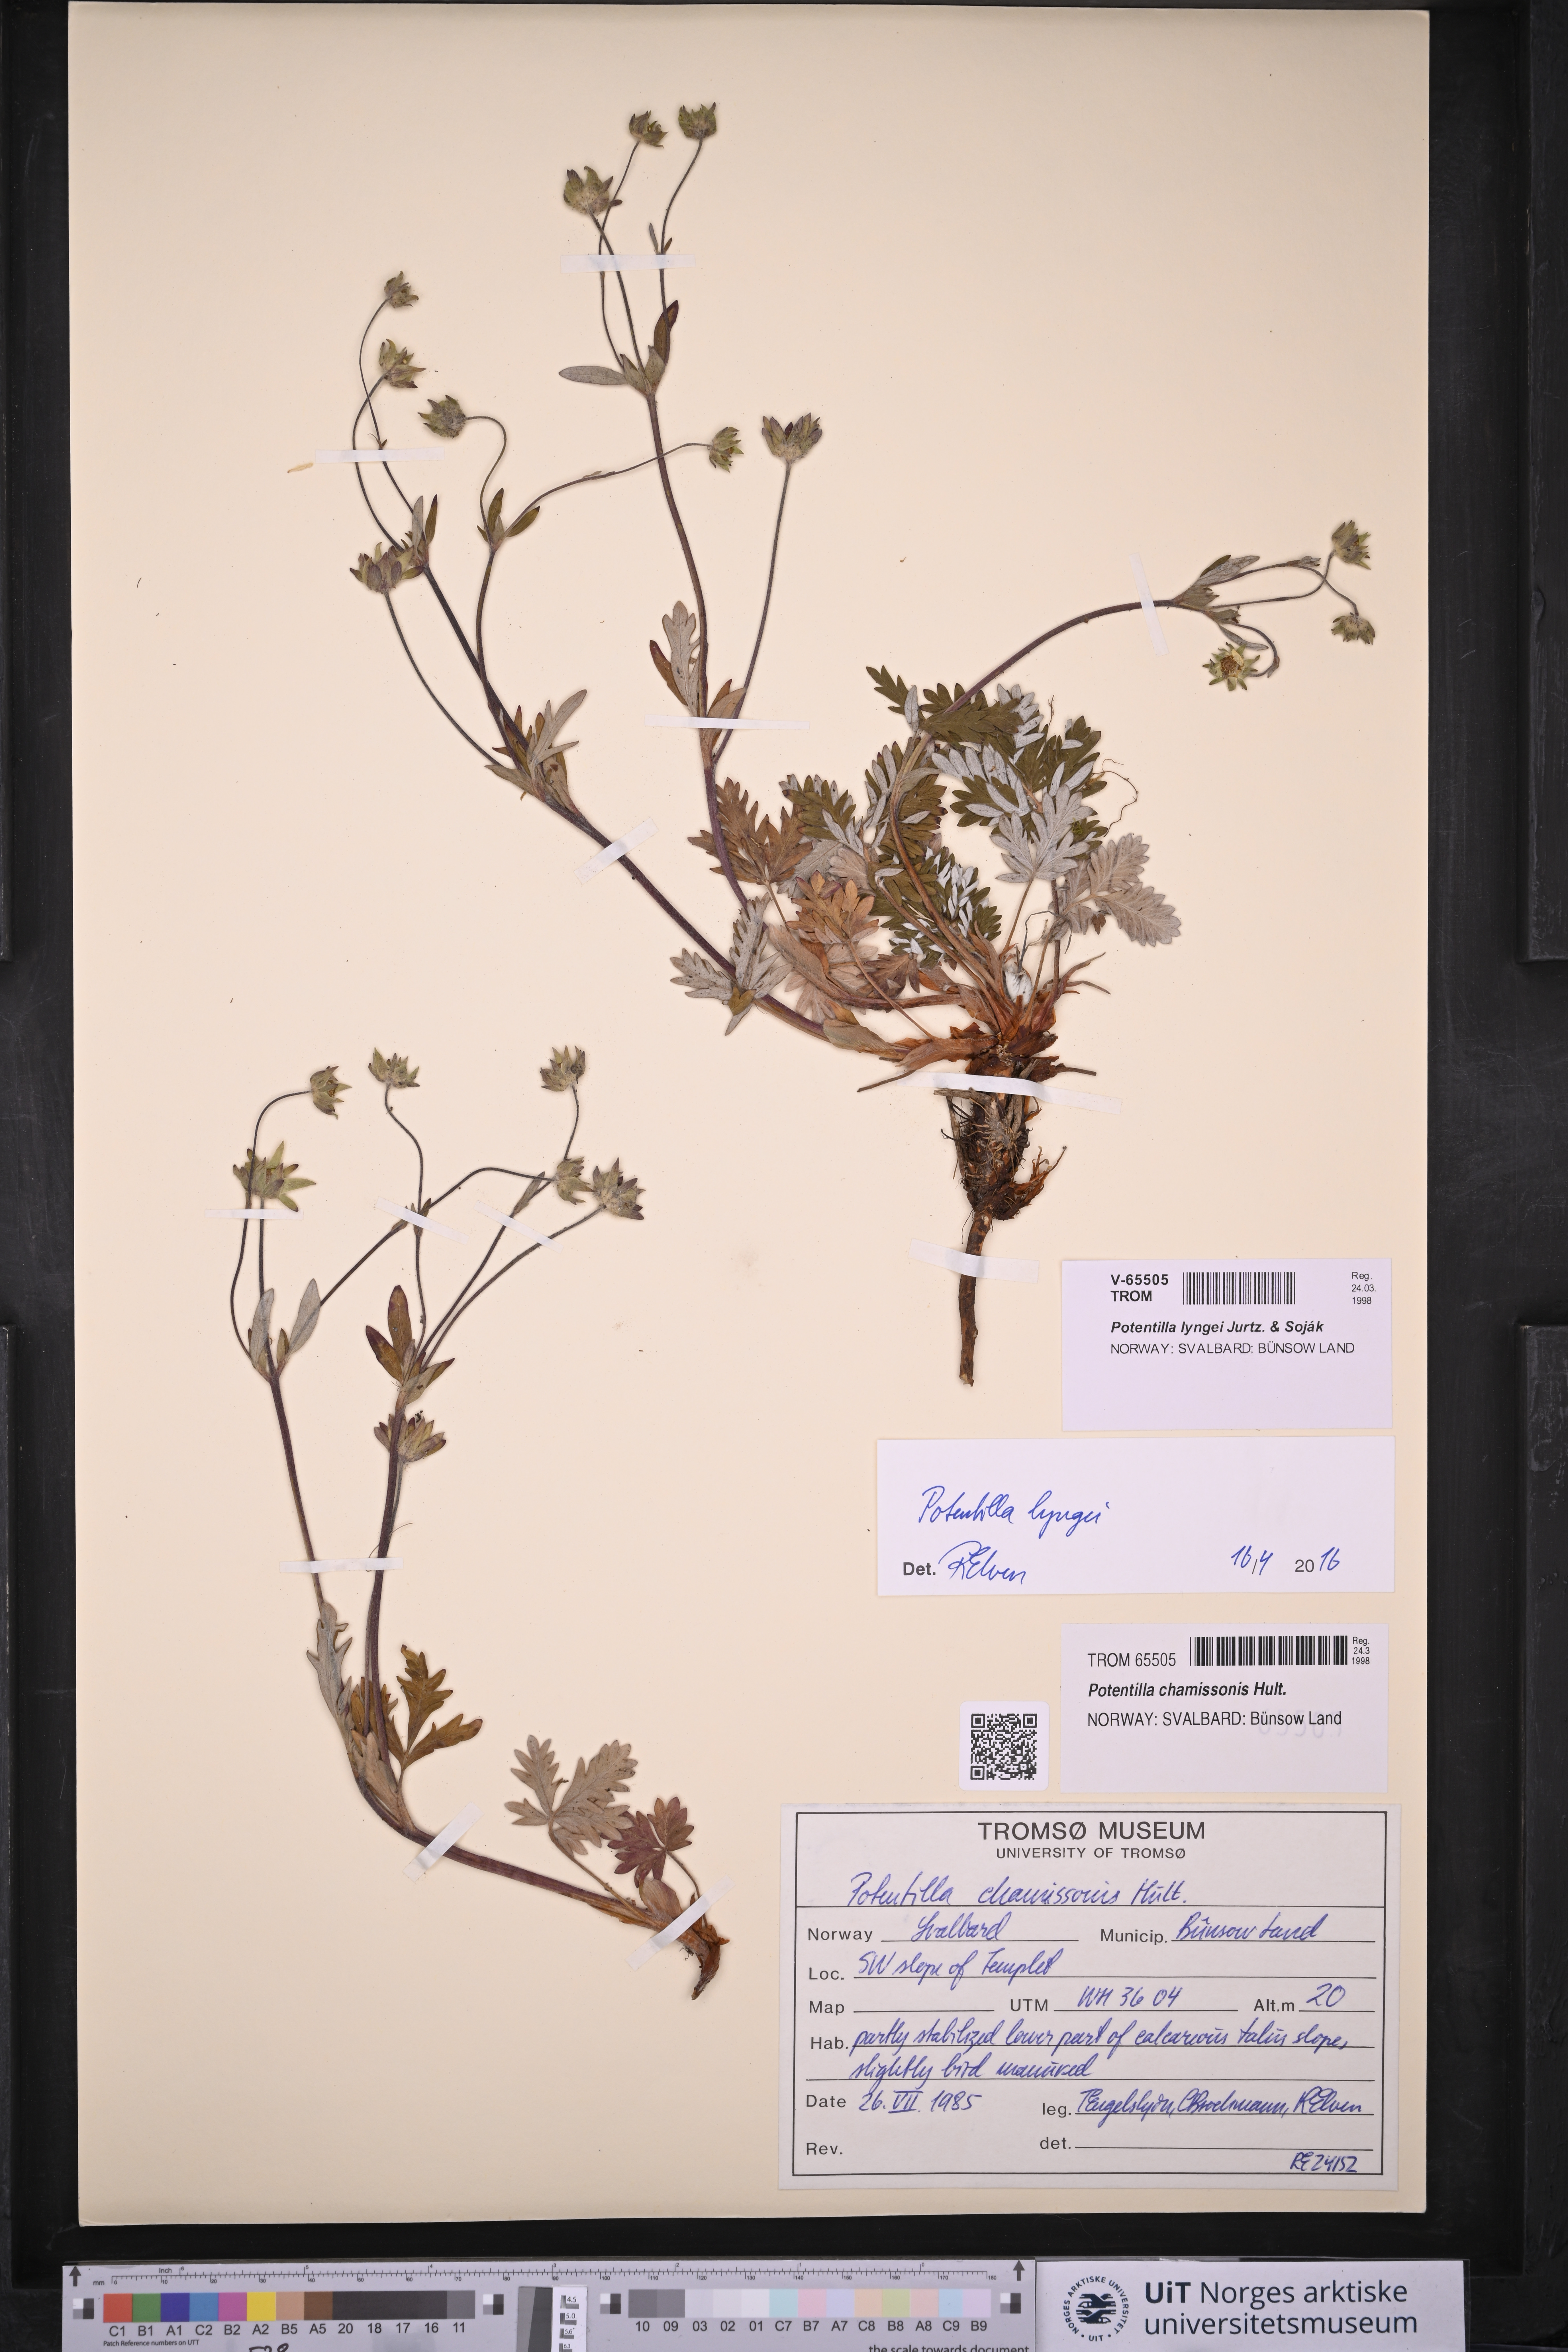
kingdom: Plantae
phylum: Tracheophyta
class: Magnoliopsida
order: Rosales
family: Rosaceae
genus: Potentilla
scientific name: Potentilla sommerfeltii
